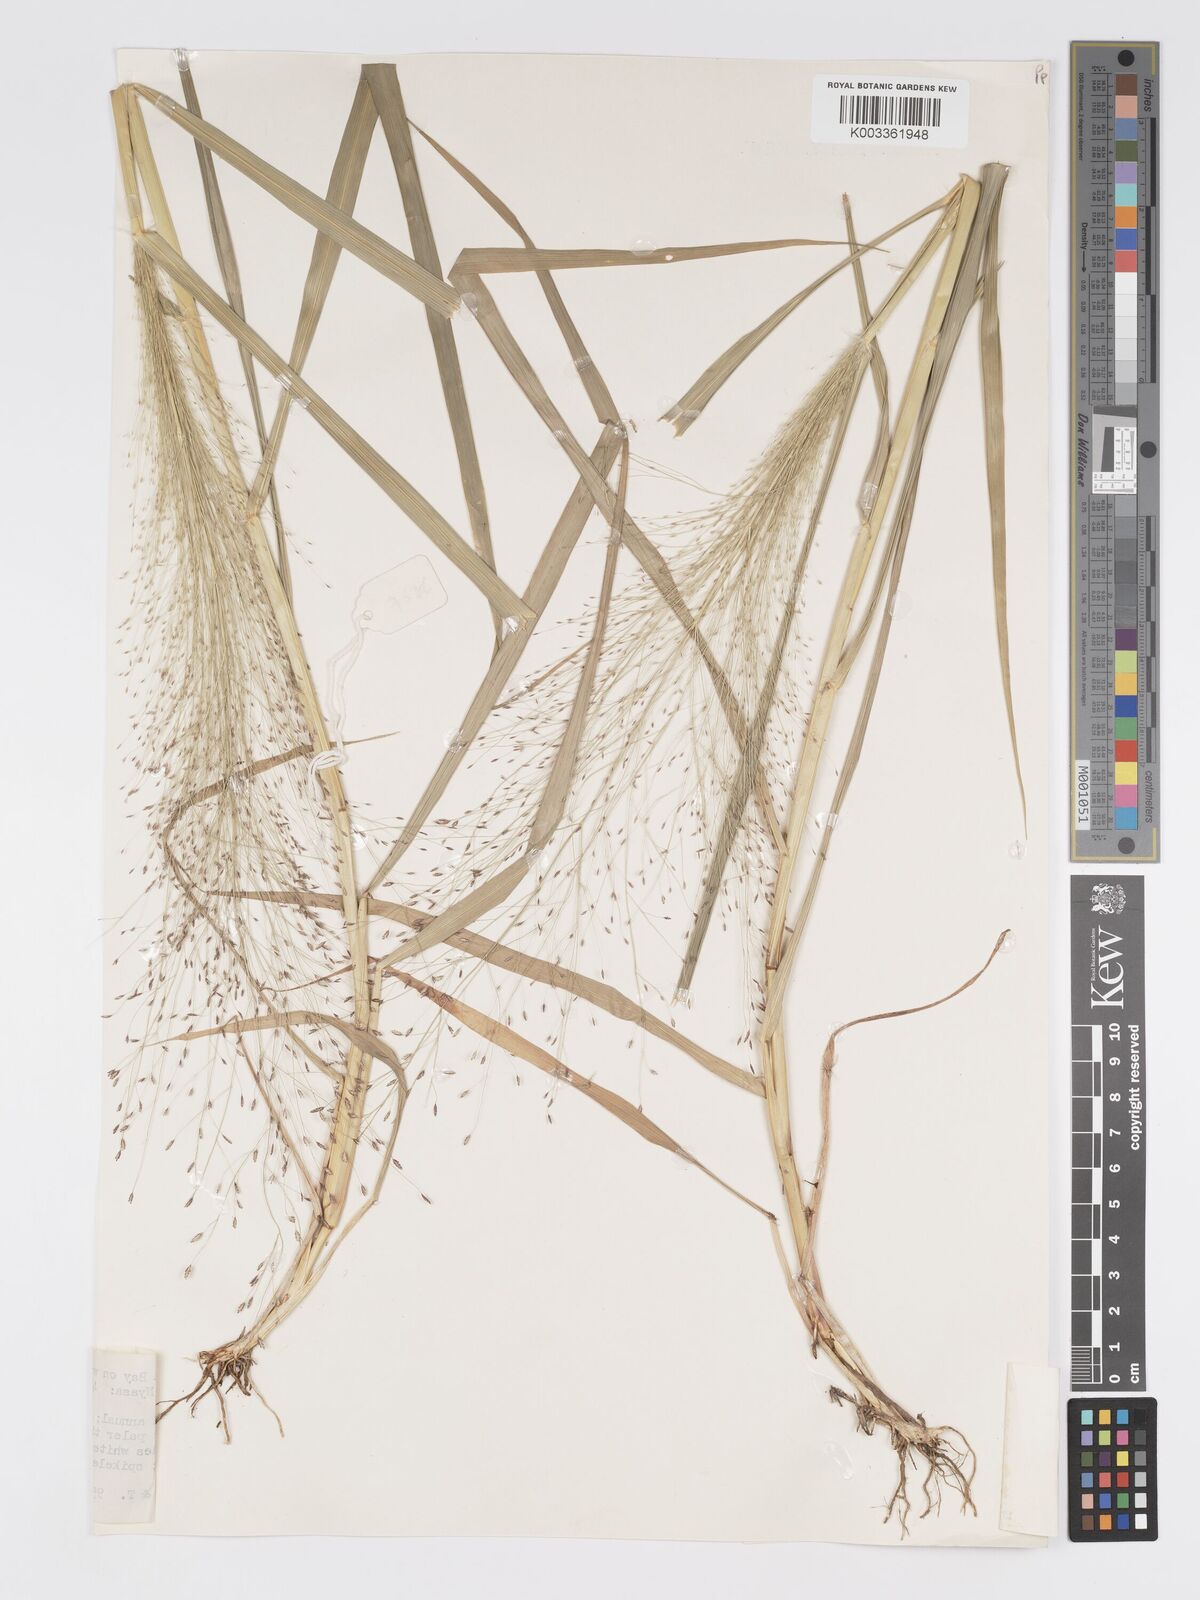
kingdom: Plantae
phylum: Tracheophyta
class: Liliopsida
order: Poales
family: Poaceae
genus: Eragrostis
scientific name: Eragrostis aspera
